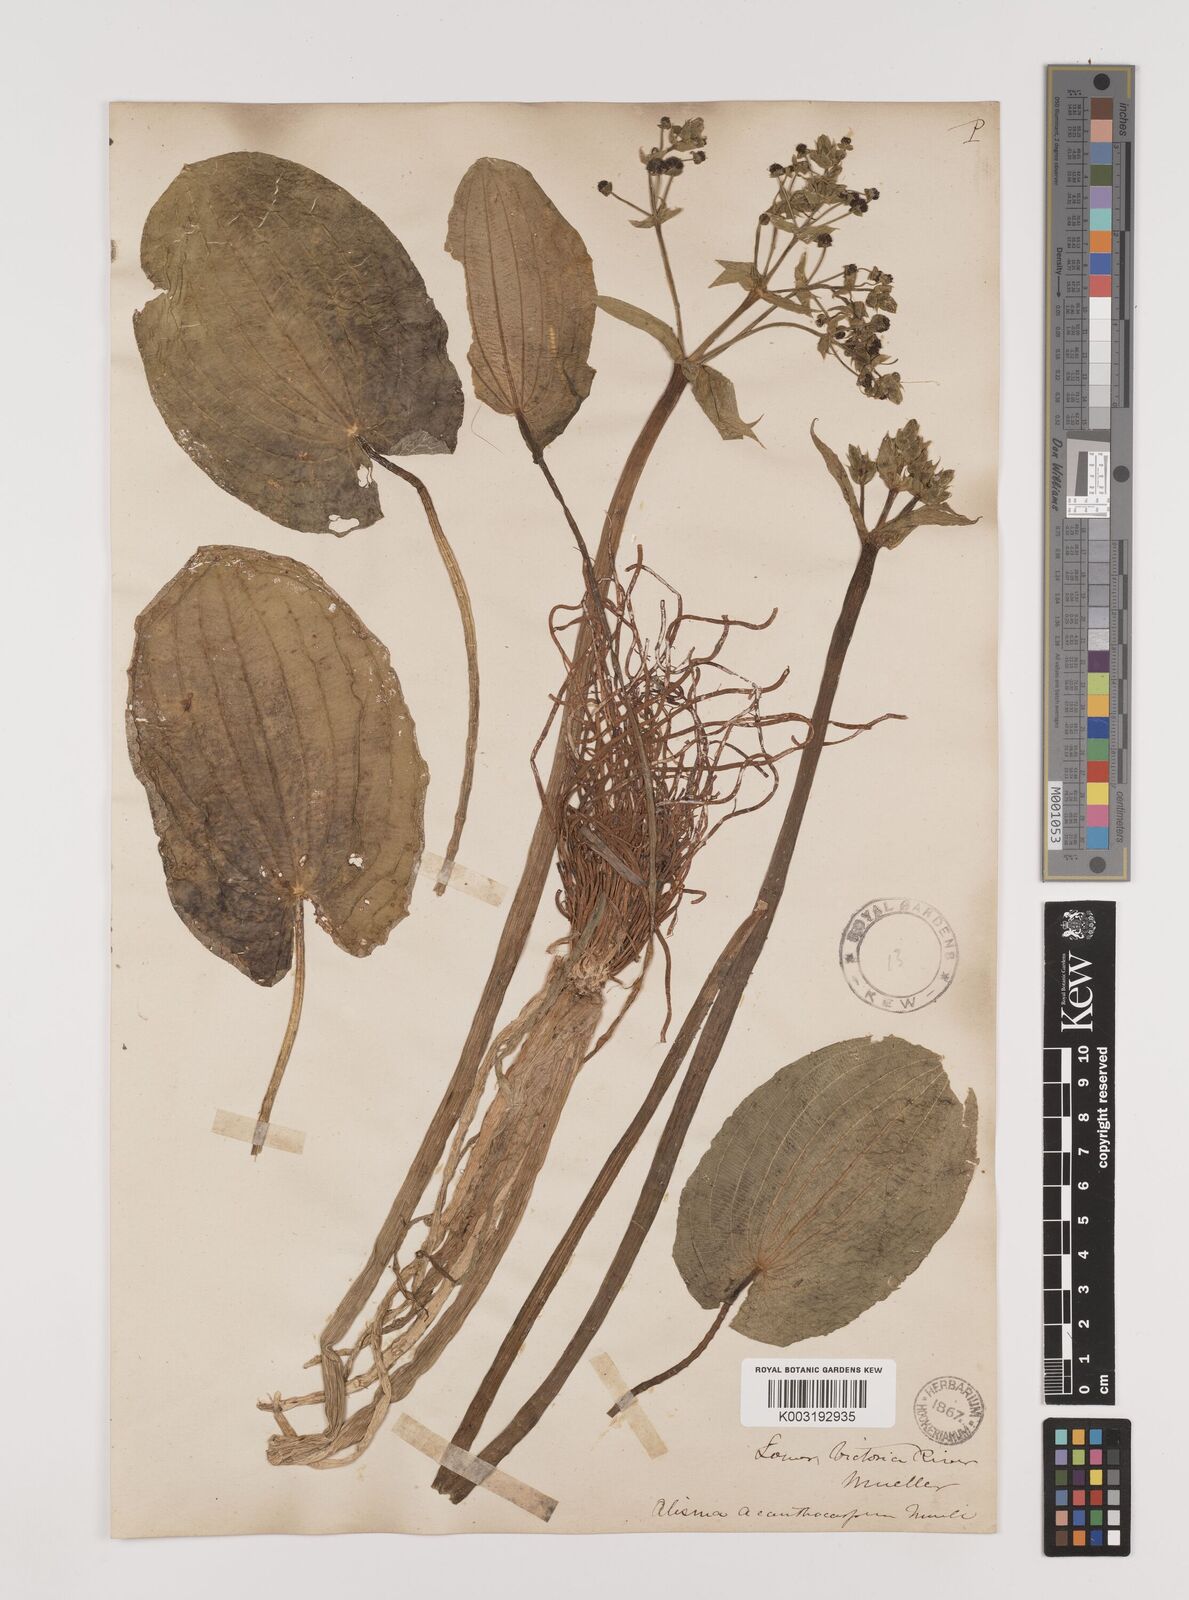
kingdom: Plantae
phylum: Tracheophyta
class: Liliopsida
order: Alismatales
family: Alismataceae
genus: Albidella
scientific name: Albidella oligococca
